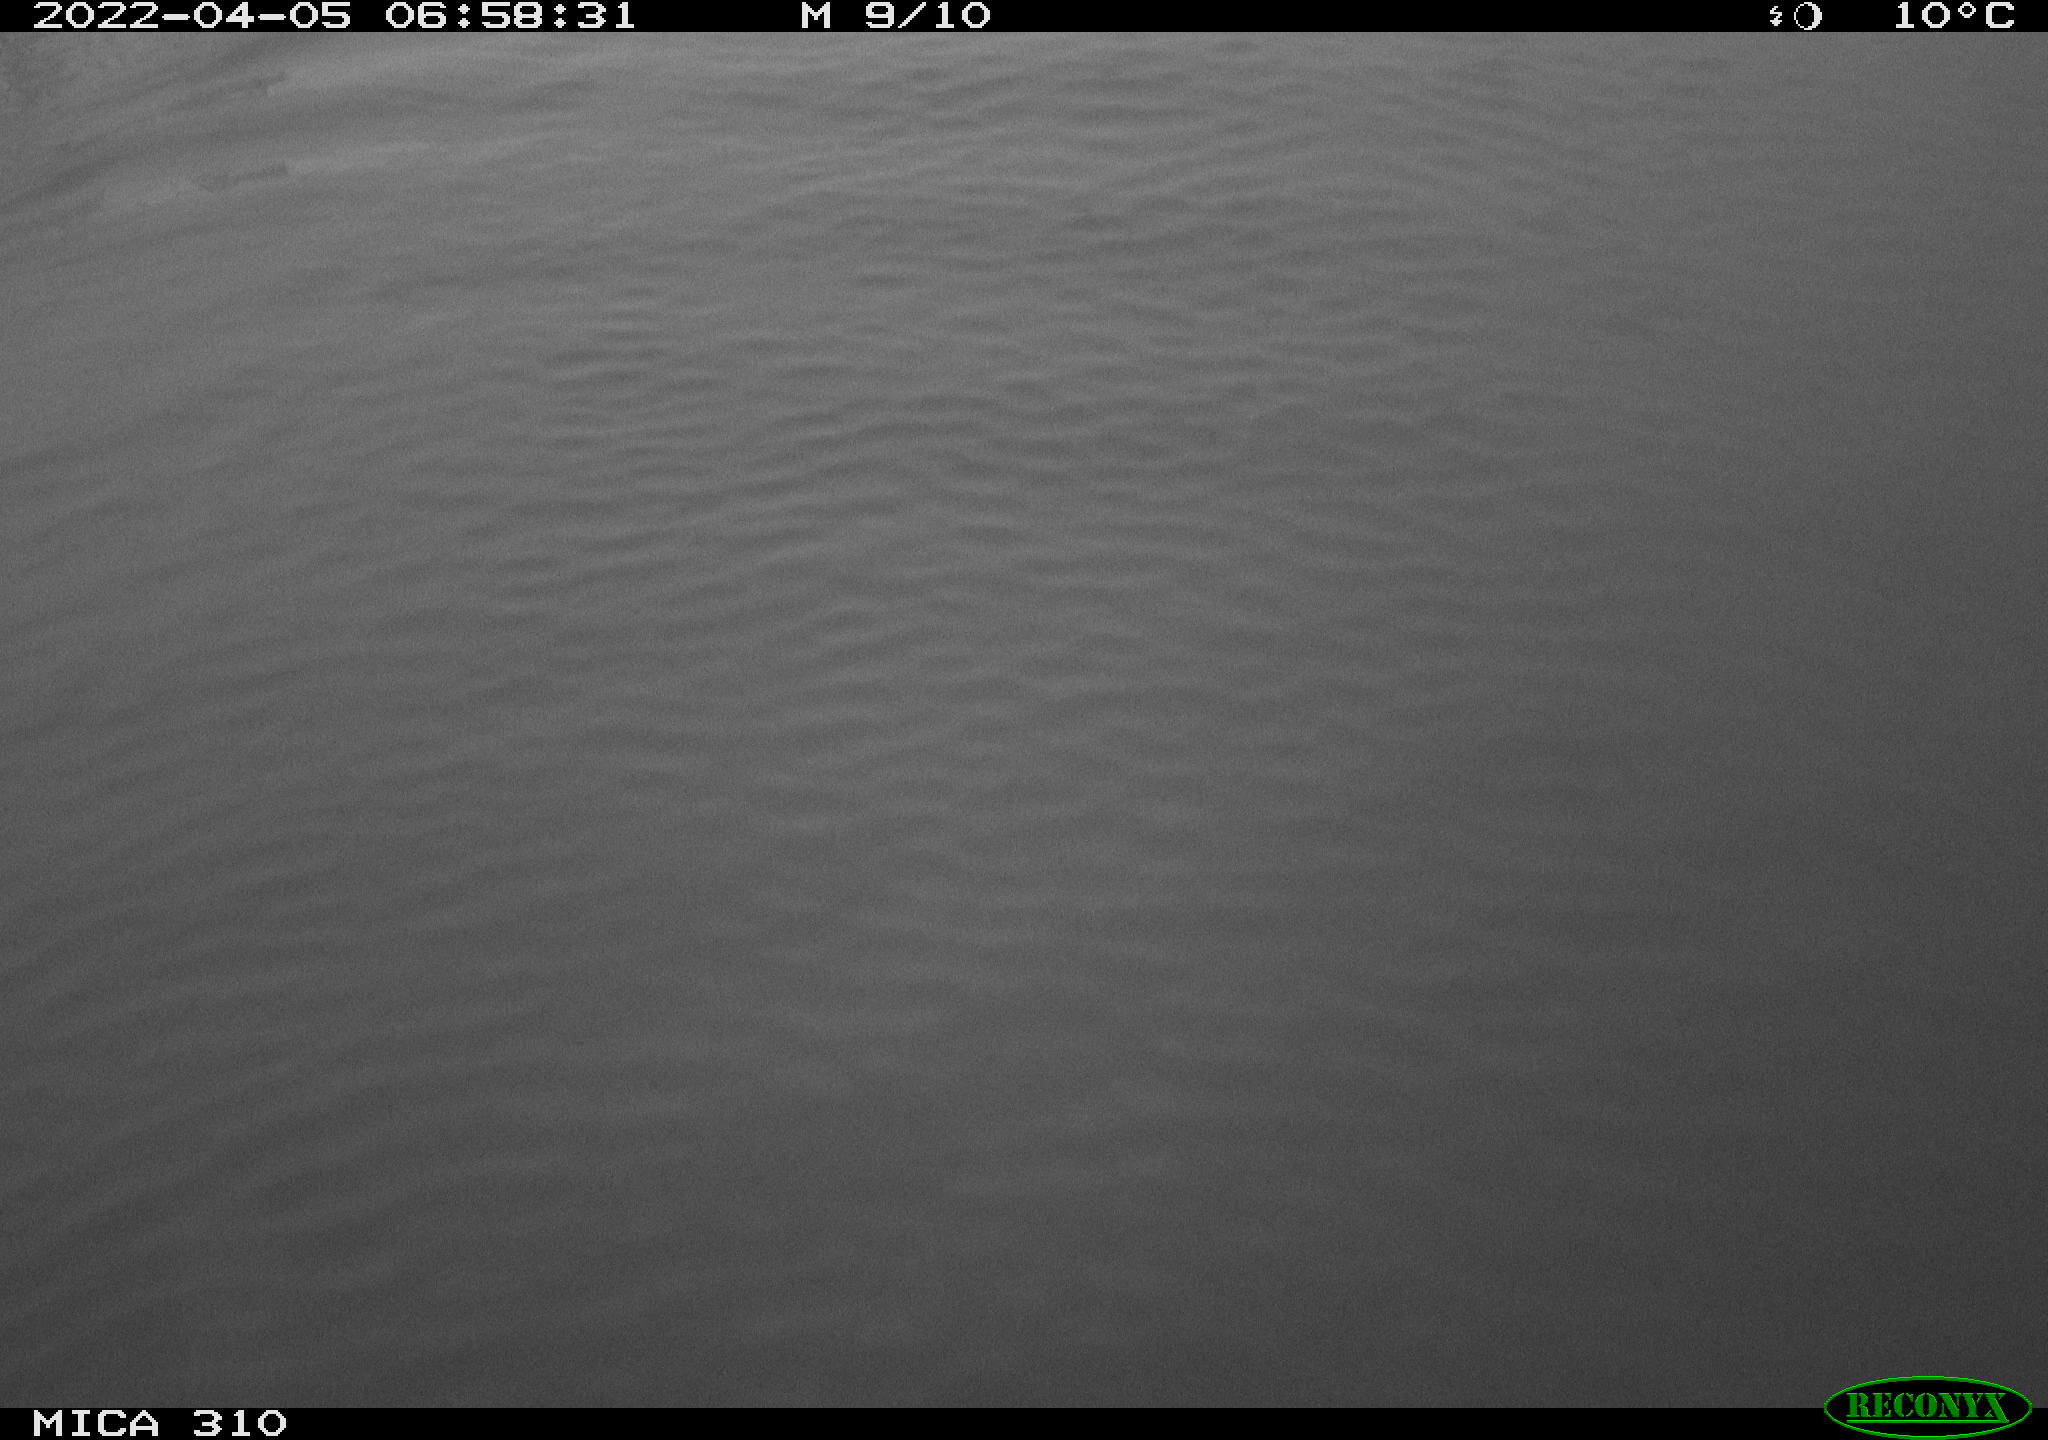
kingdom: Animalia
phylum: Chordata
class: Aves
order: Anseriformes
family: Anatidae
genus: Anas
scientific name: Anas platyrhynchos
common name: Mallard
